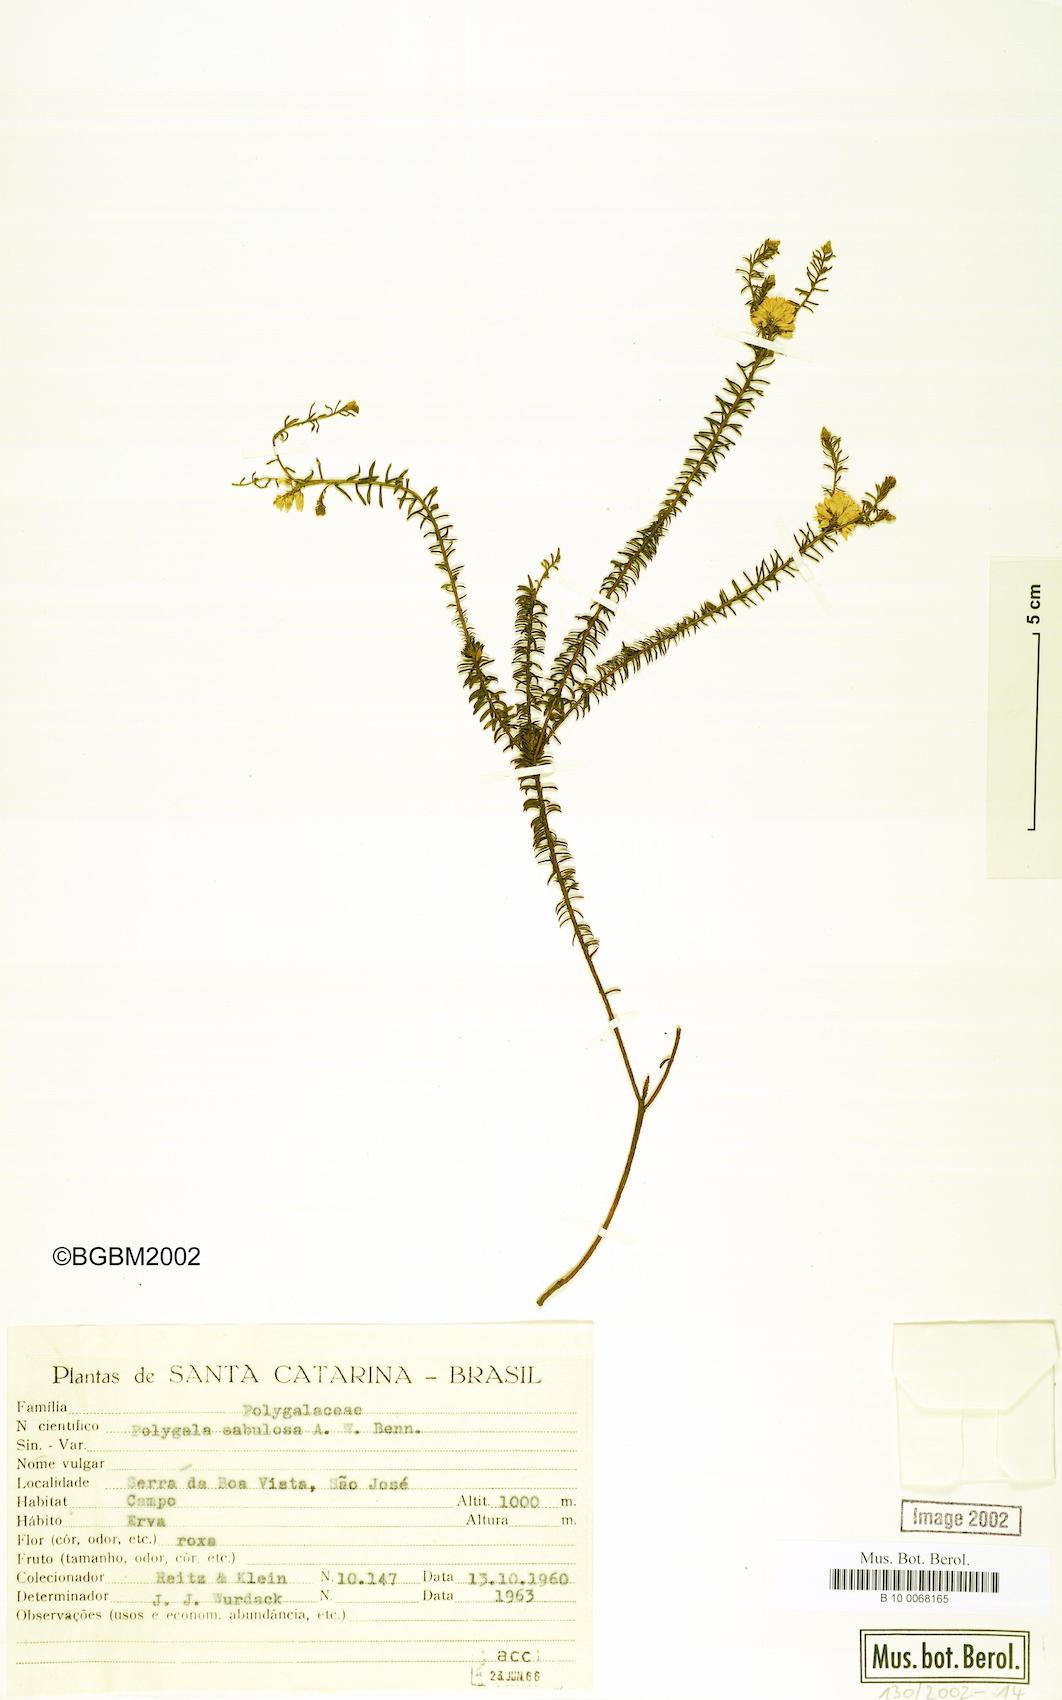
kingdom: Plantae
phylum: Tracheophyta
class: Magnoliopsida
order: Fabales
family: Polygalaceae
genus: Polygala
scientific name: Polygala sellowiana
